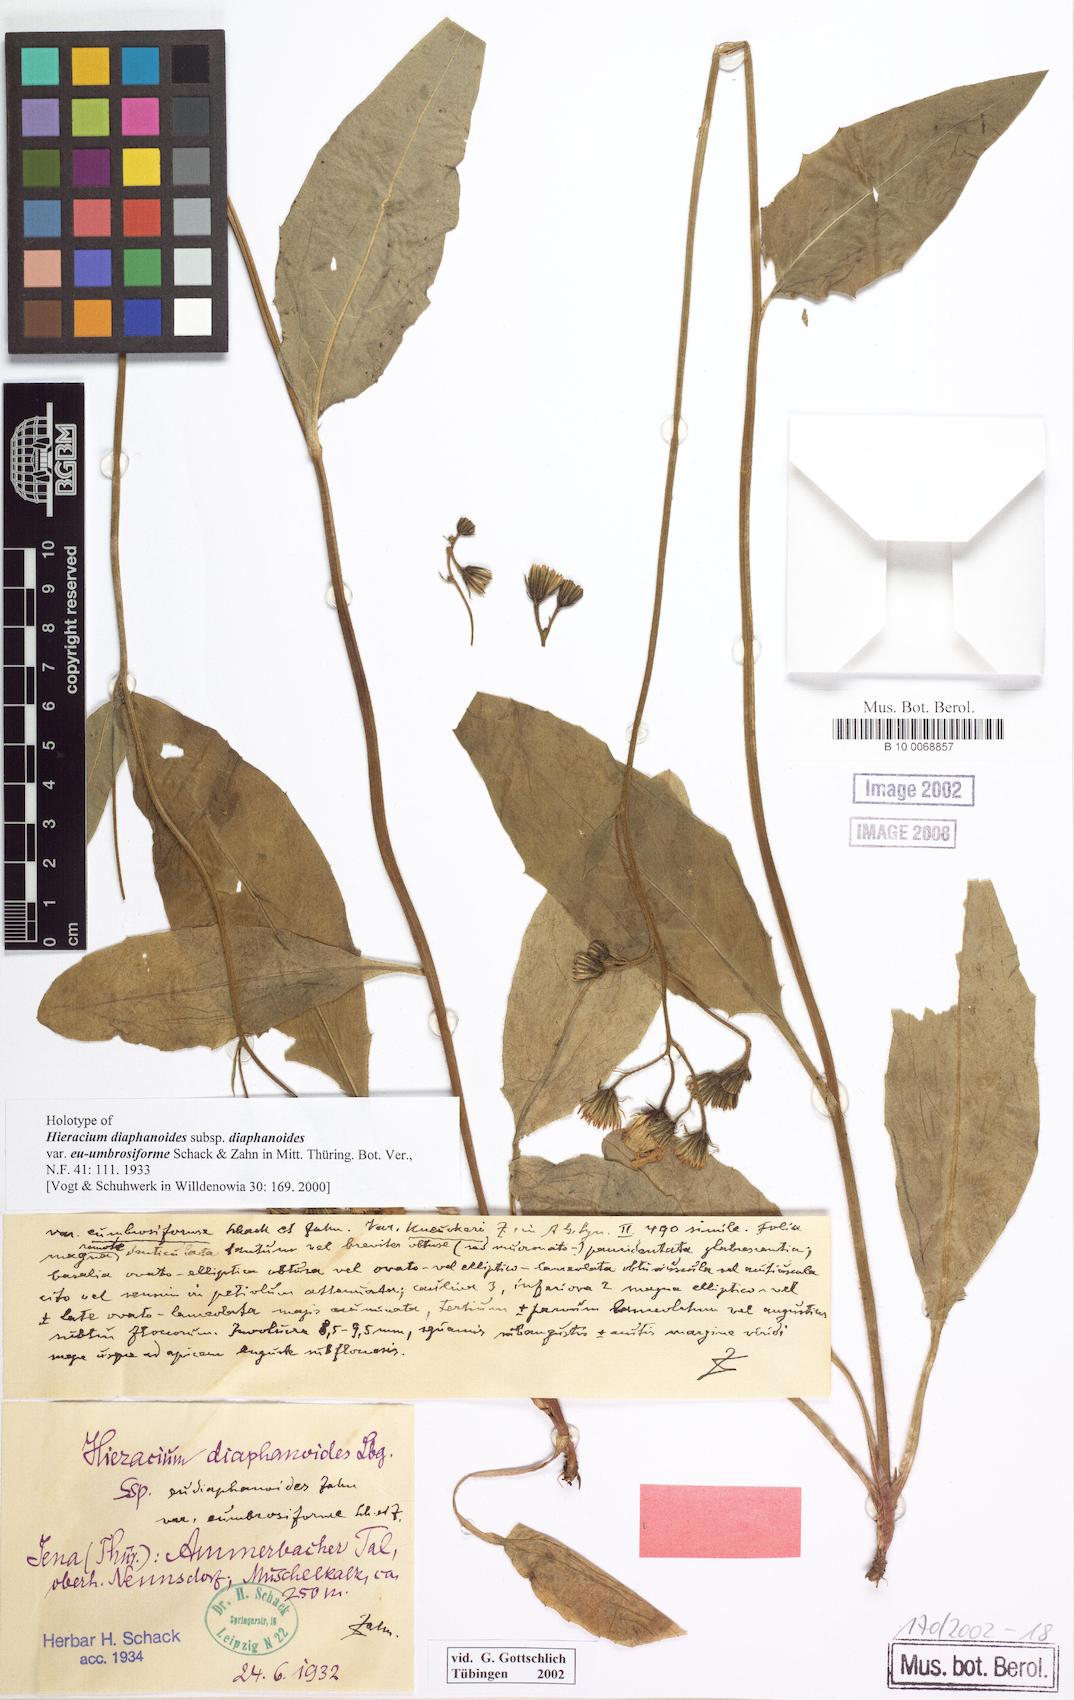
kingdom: Plantae
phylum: Tracheophyta
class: Magnoliopsida
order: Asterales
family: Asteraceae
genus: Hieracium
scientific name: Hieracium diaphanoides
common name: Fine-bracted hawkweed
